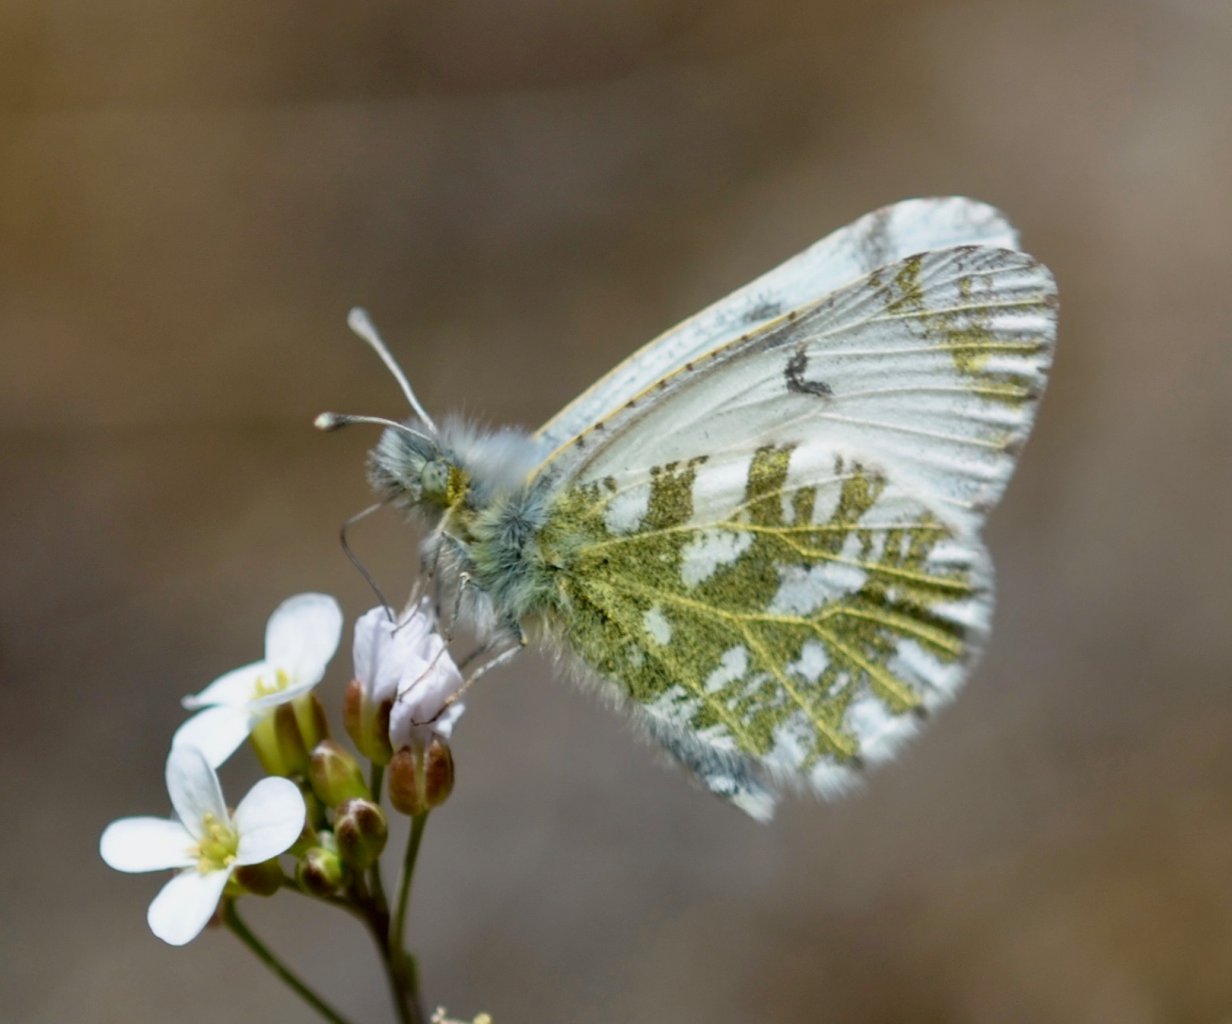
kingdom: Animalia
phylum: Arthropoda
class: Insecta
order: Lepidoptera
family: Pieridae
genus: Euchloe
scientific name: Euchloe creusa
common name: Northern Marble
